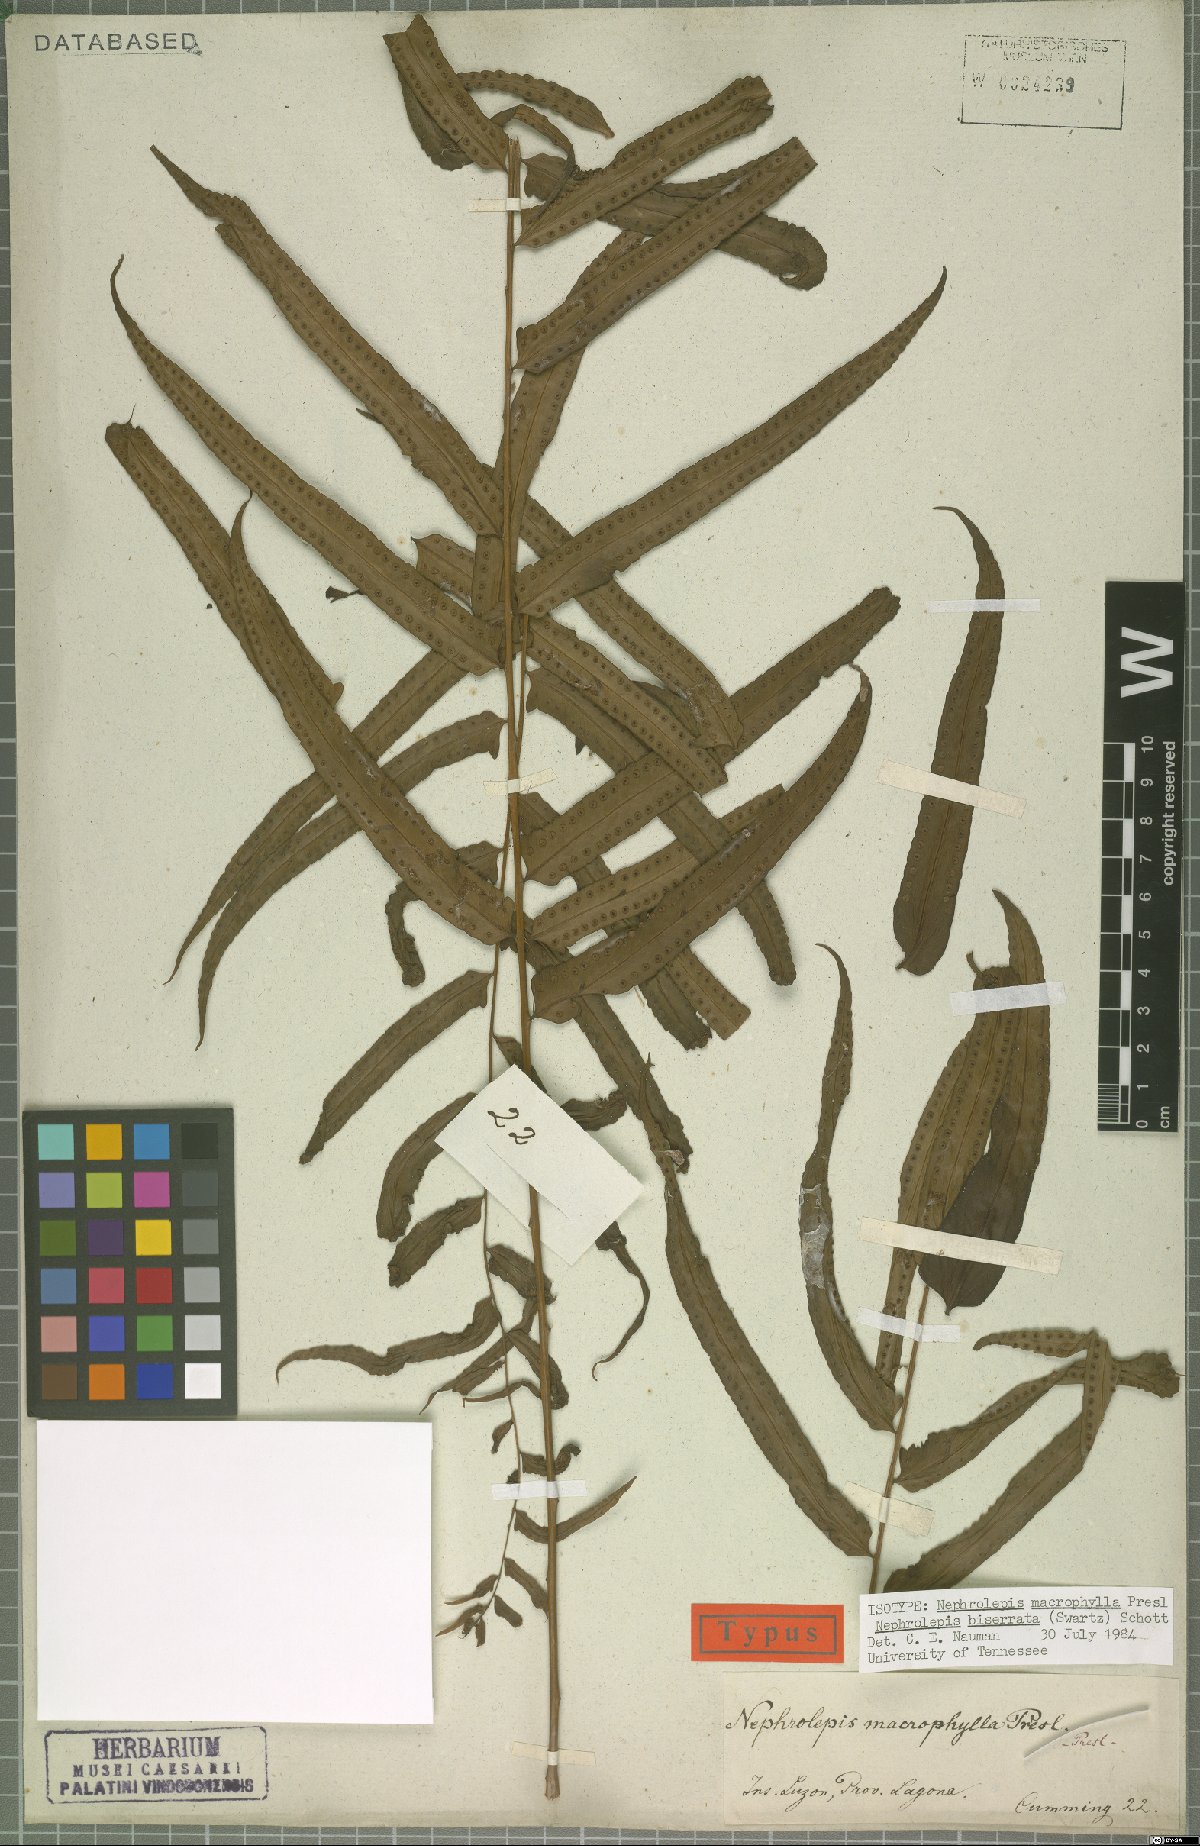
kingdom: Plantae
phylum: Tracheophyta
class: Polypodiopsida
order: Polypodiales
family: Nephrolepidaceae
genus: Nephrolepis
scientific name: Nephrolepis biserrata
